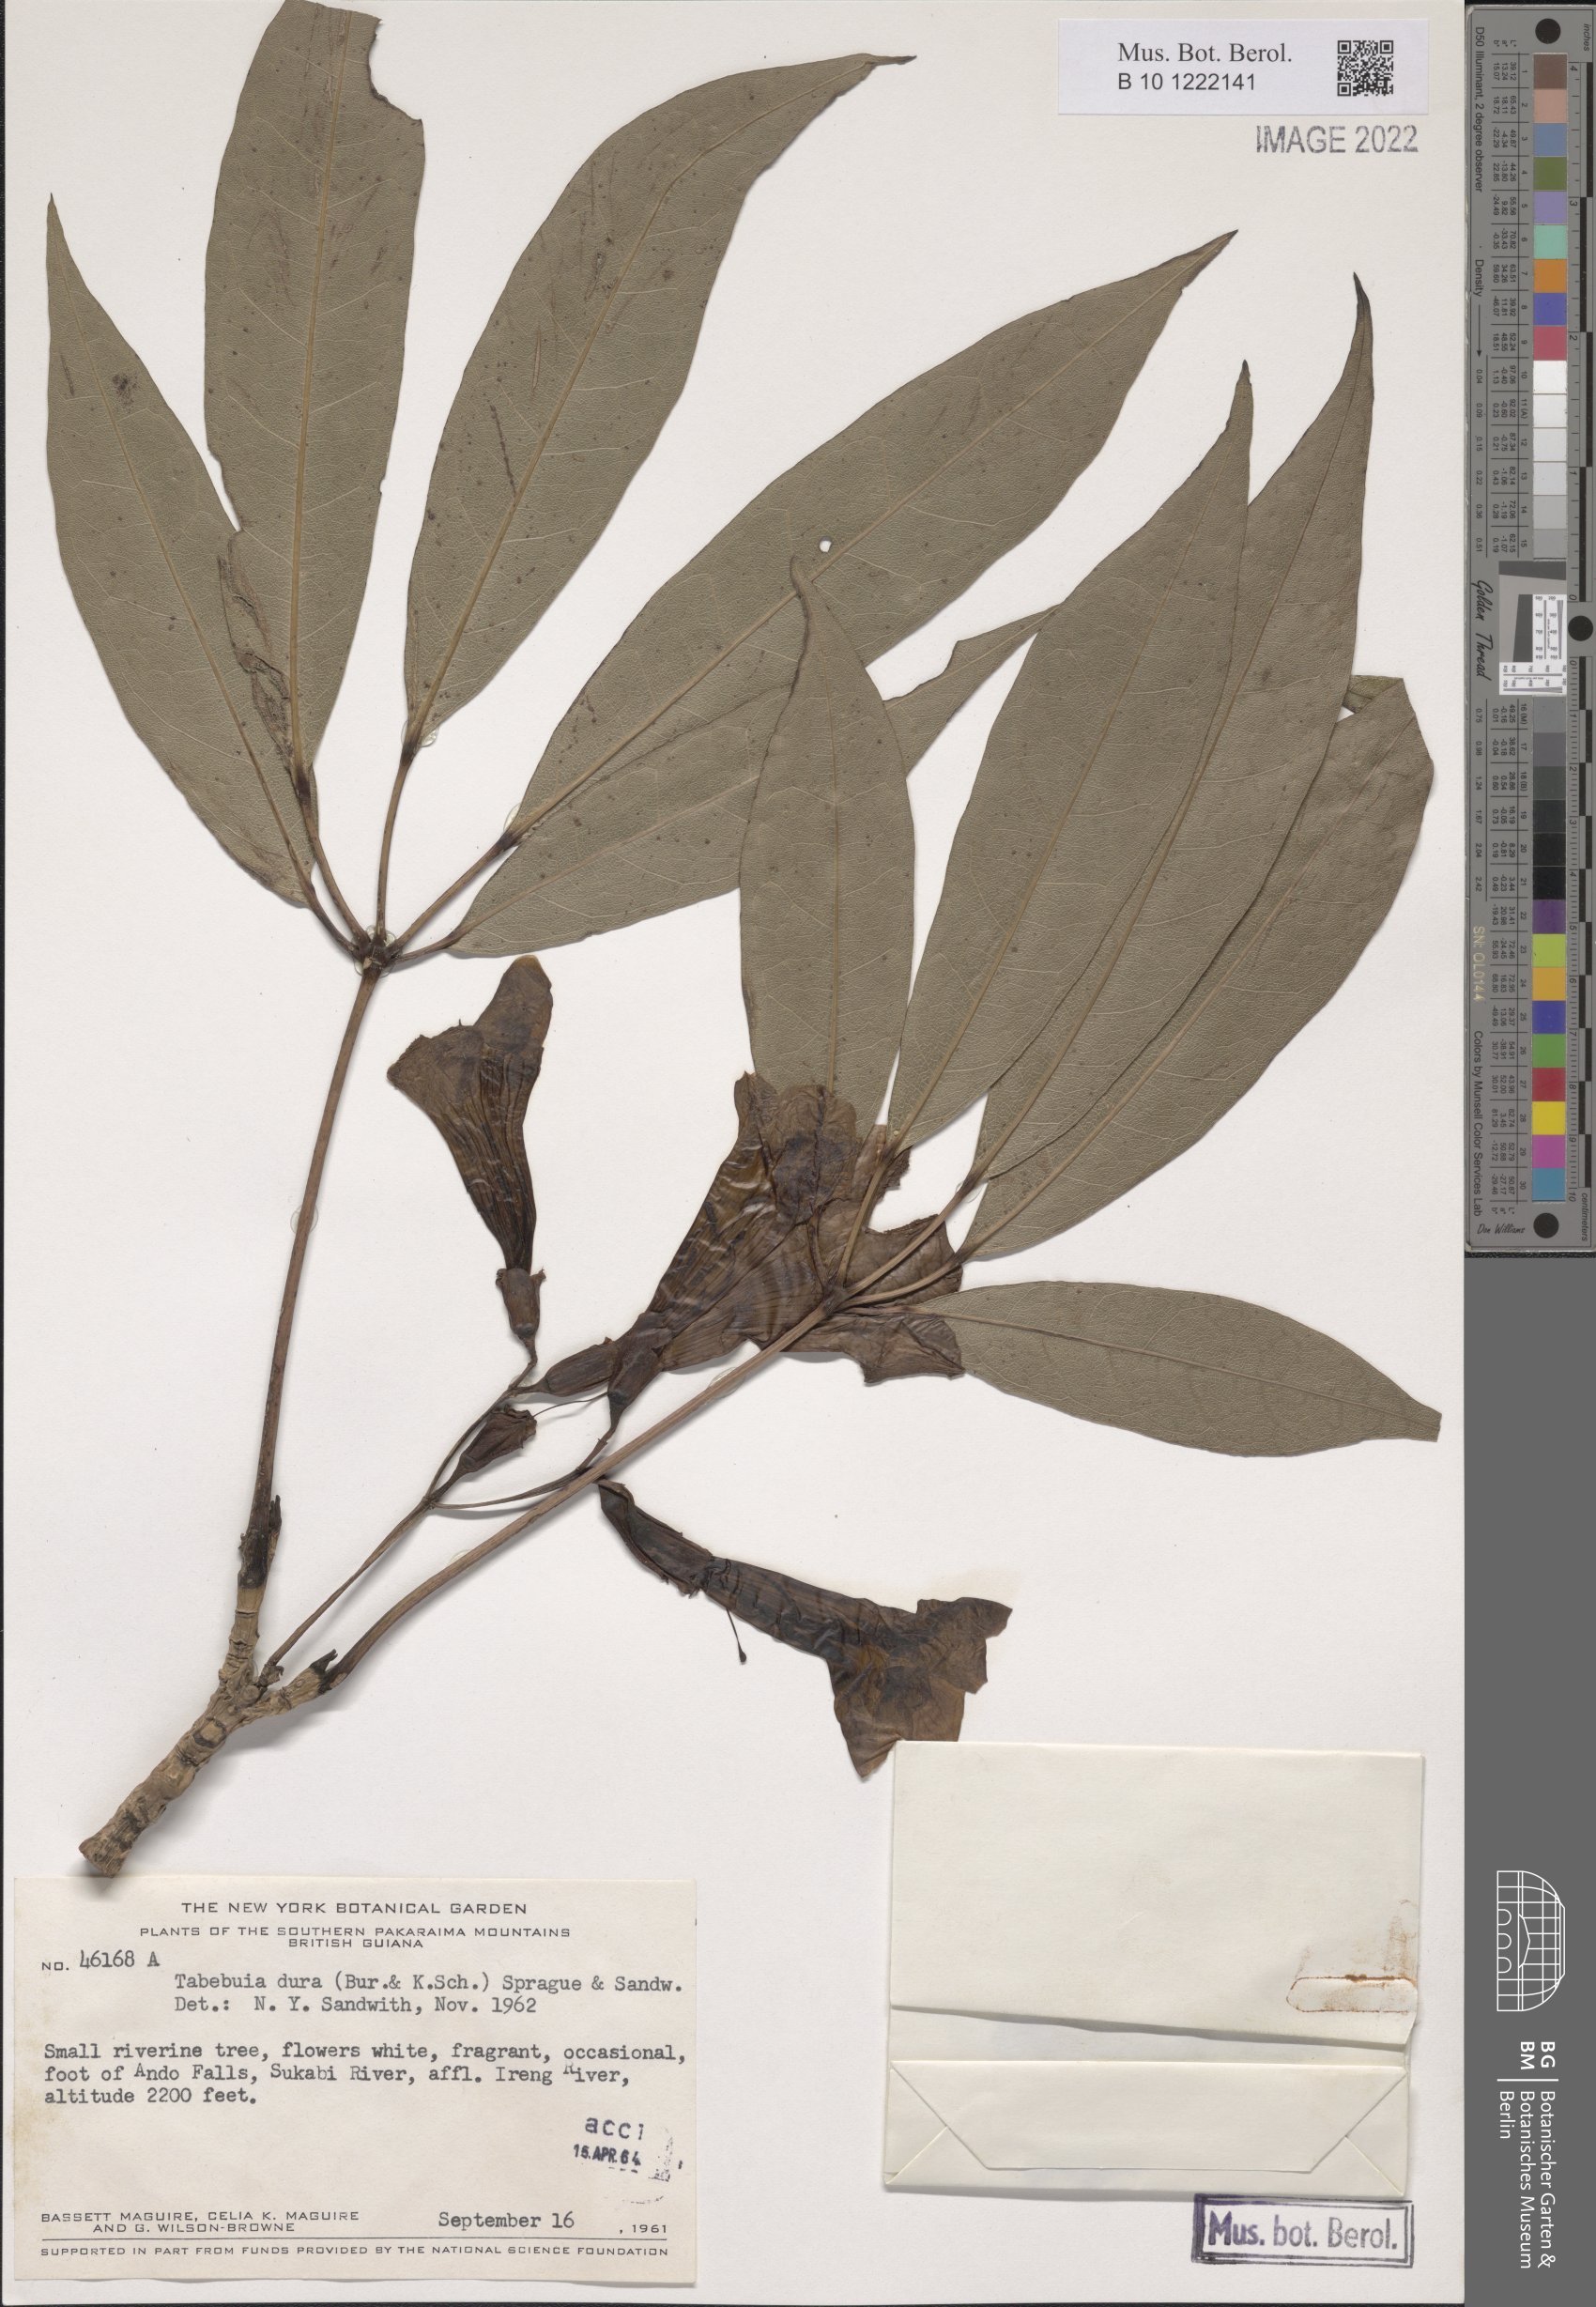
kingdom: Plantae
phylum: Tracheophyta
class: Magnoliopsida
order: Lamiales
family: Bignoniaceae
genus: Tabebuia
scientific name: Tabebuia insignis
